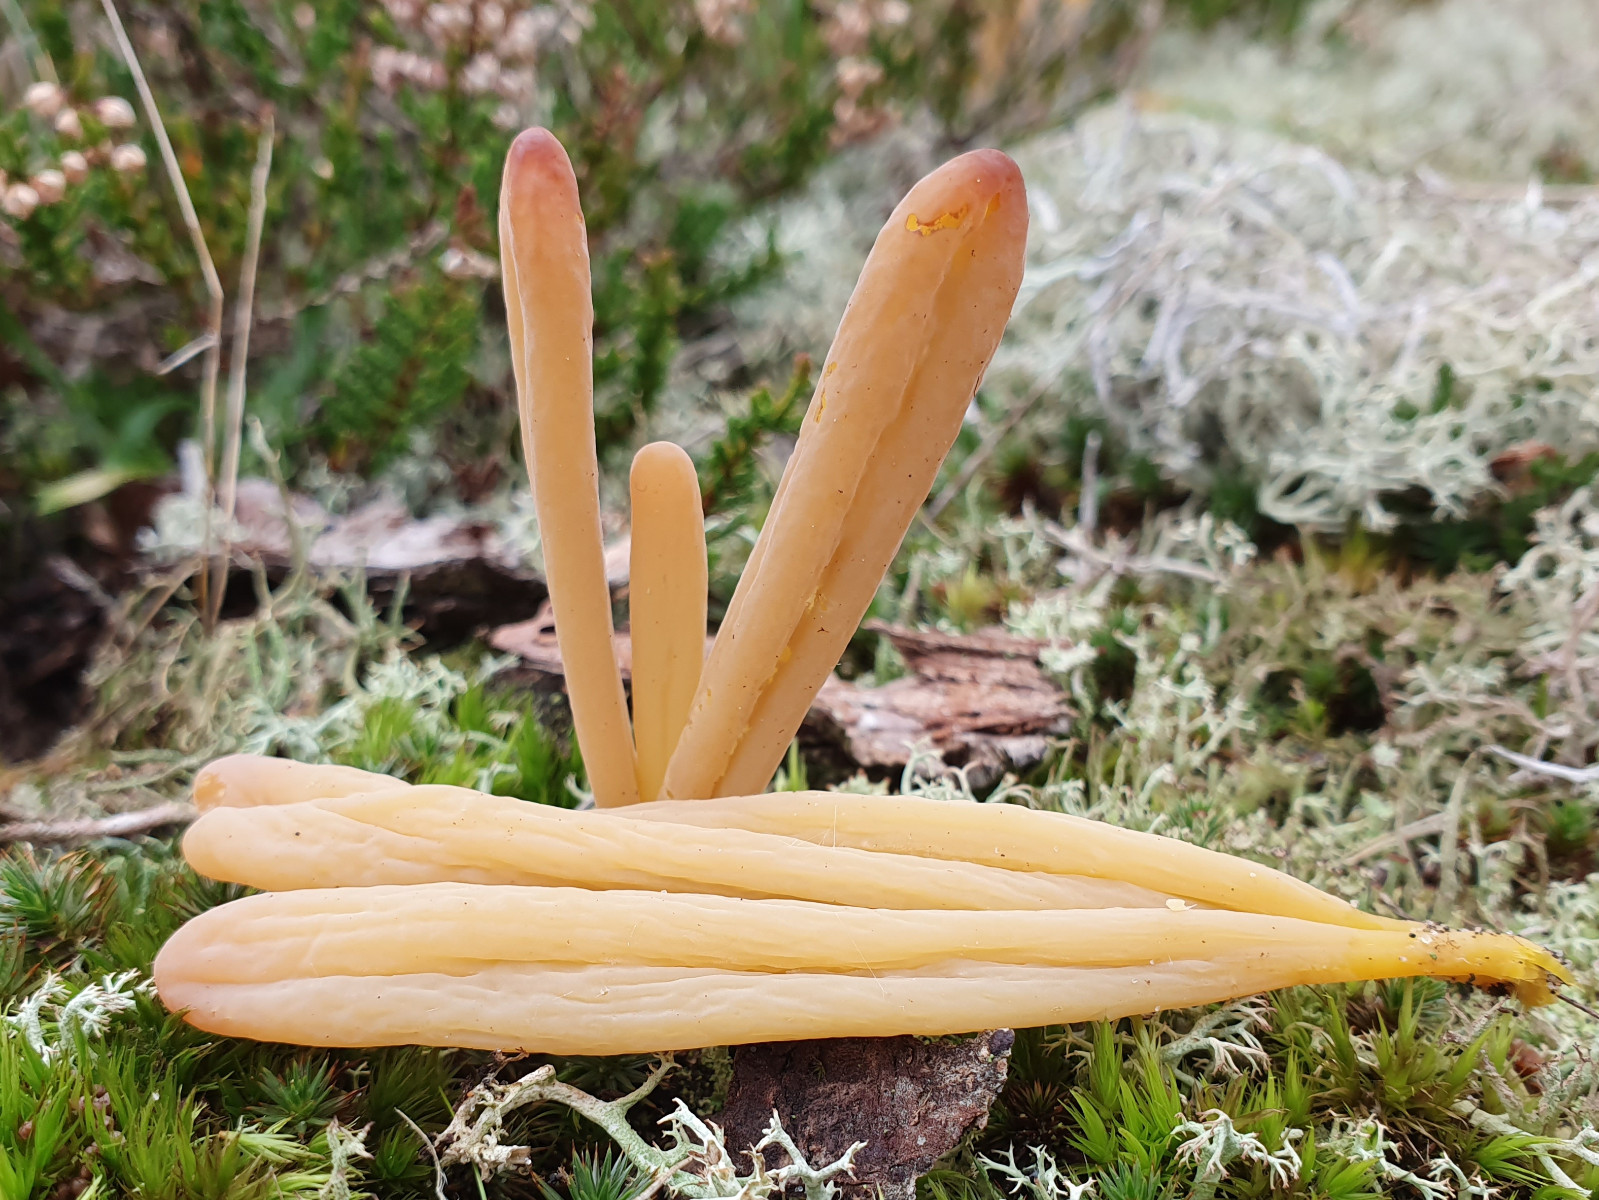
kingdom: Fungi
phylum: Basidiomycota
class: Agaricomycetes
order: Agaricales
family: Clavariaceae
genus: Clavaria
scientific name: Clavaria argillacea
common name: lerfarvet køllesvamp
